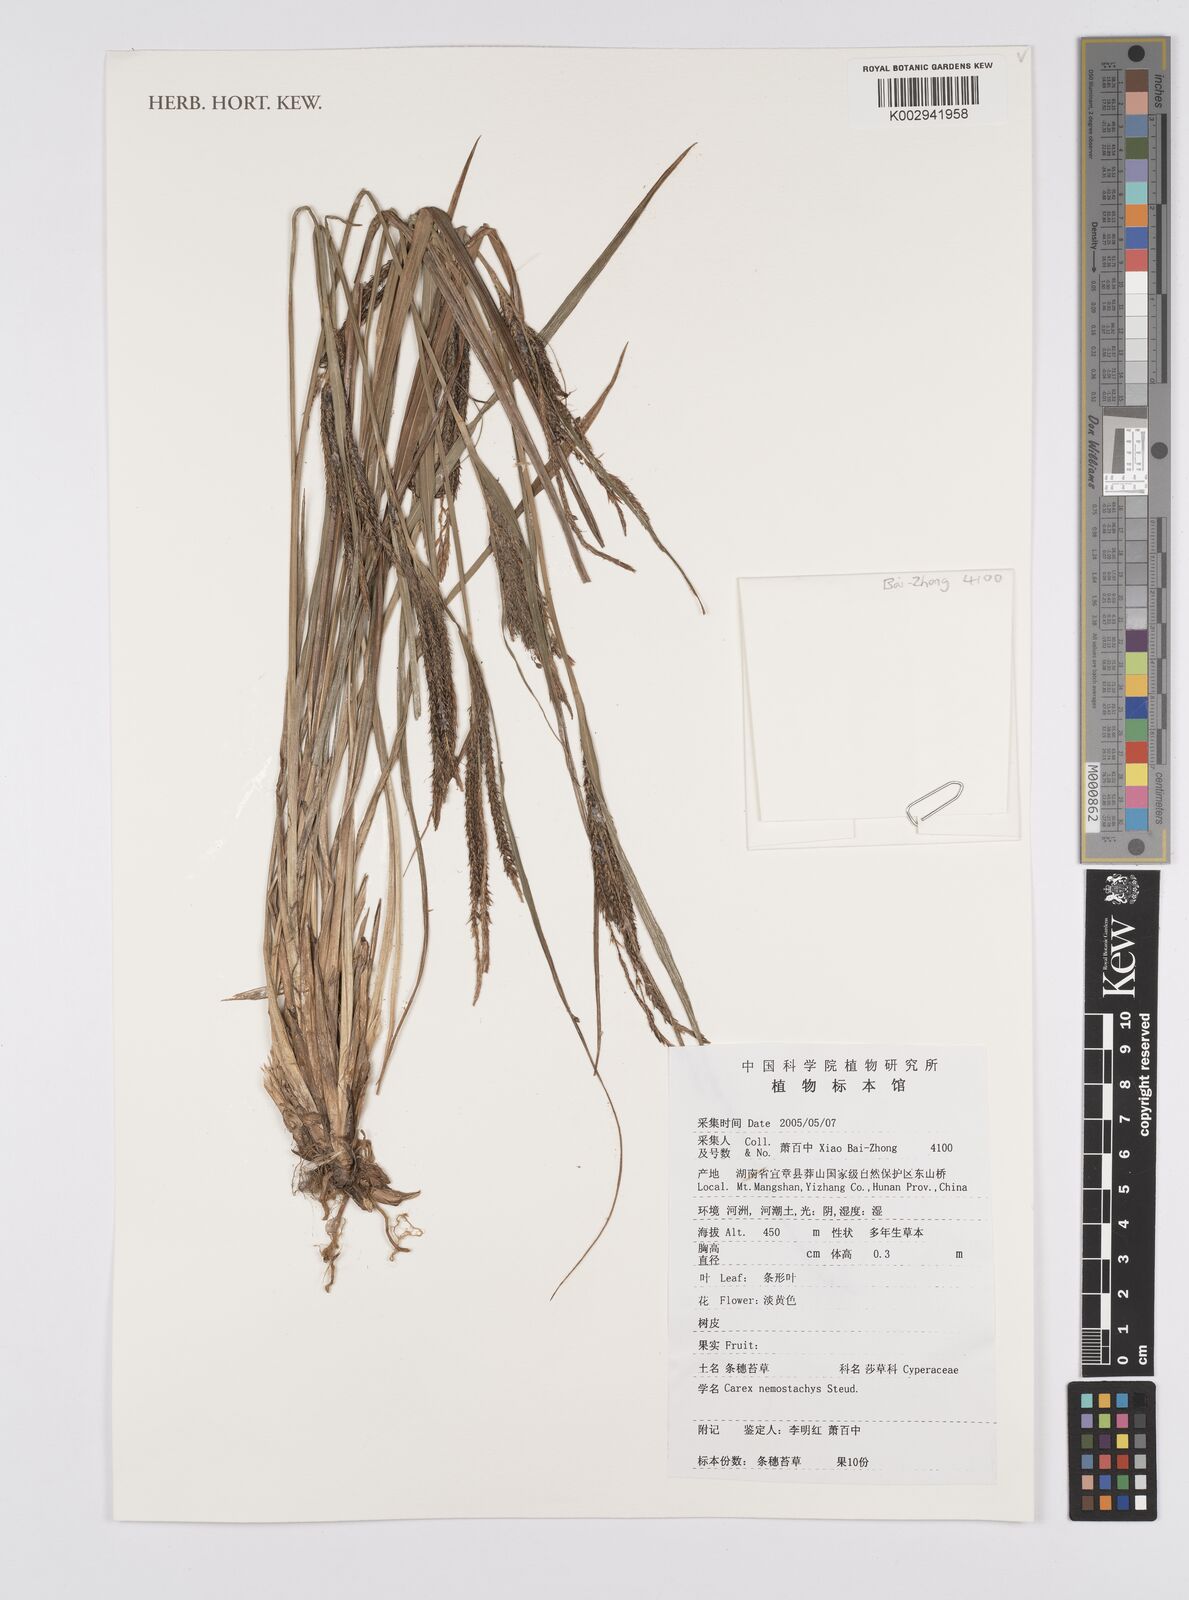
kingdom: Plantae
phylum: Tracheophyta
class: Liliopsida
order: Poales
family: Cyperaceae
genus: Carex
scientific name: Carex nemostachys
